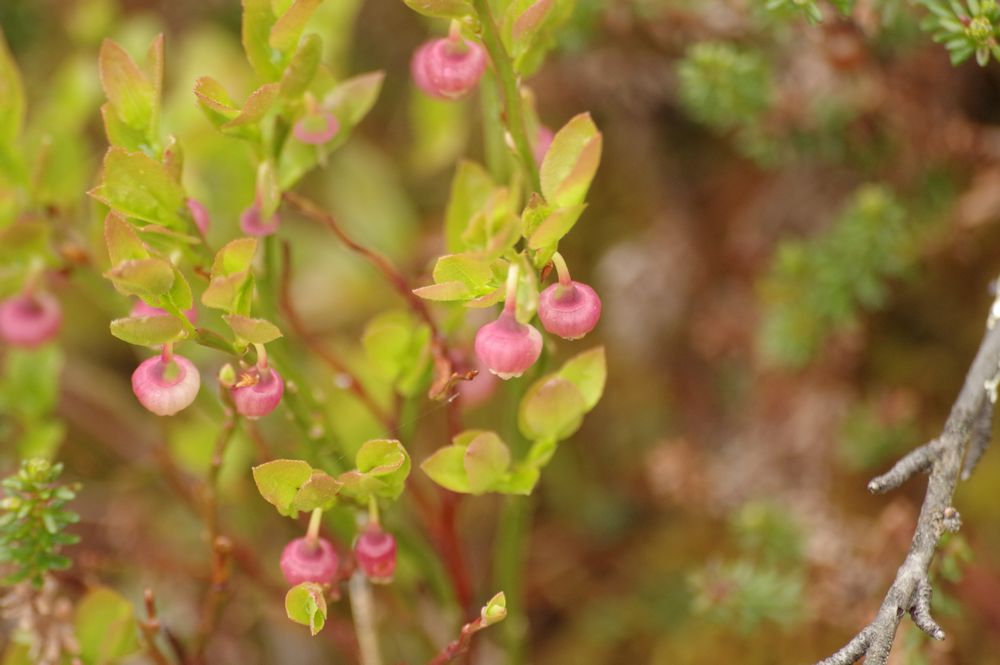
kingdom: Plantae
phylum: Tracheophyta
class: Magnoliopsida
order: Ericales
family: Ericaceae
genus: Vaccinium
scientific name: Vaccinium myrtillus
